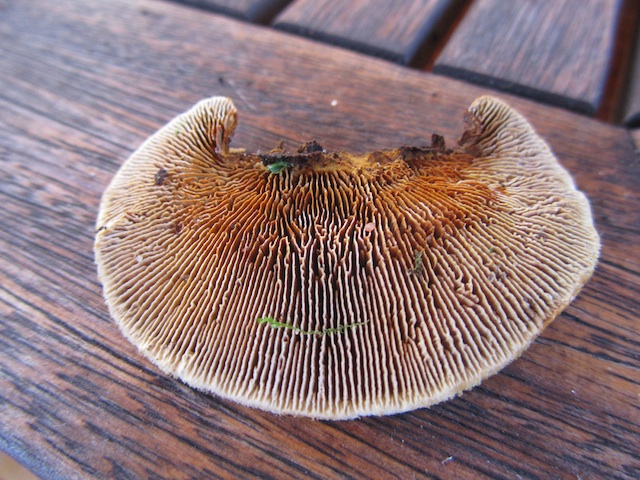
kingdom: Fungi
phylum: Basidiomycota
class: Agaricomycetes
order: Gloeophyllales
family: Gloeophyllaceae
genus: Gloeophyllum
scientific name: Gloeophyllum sepiarium
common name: fyrre-korkhat
